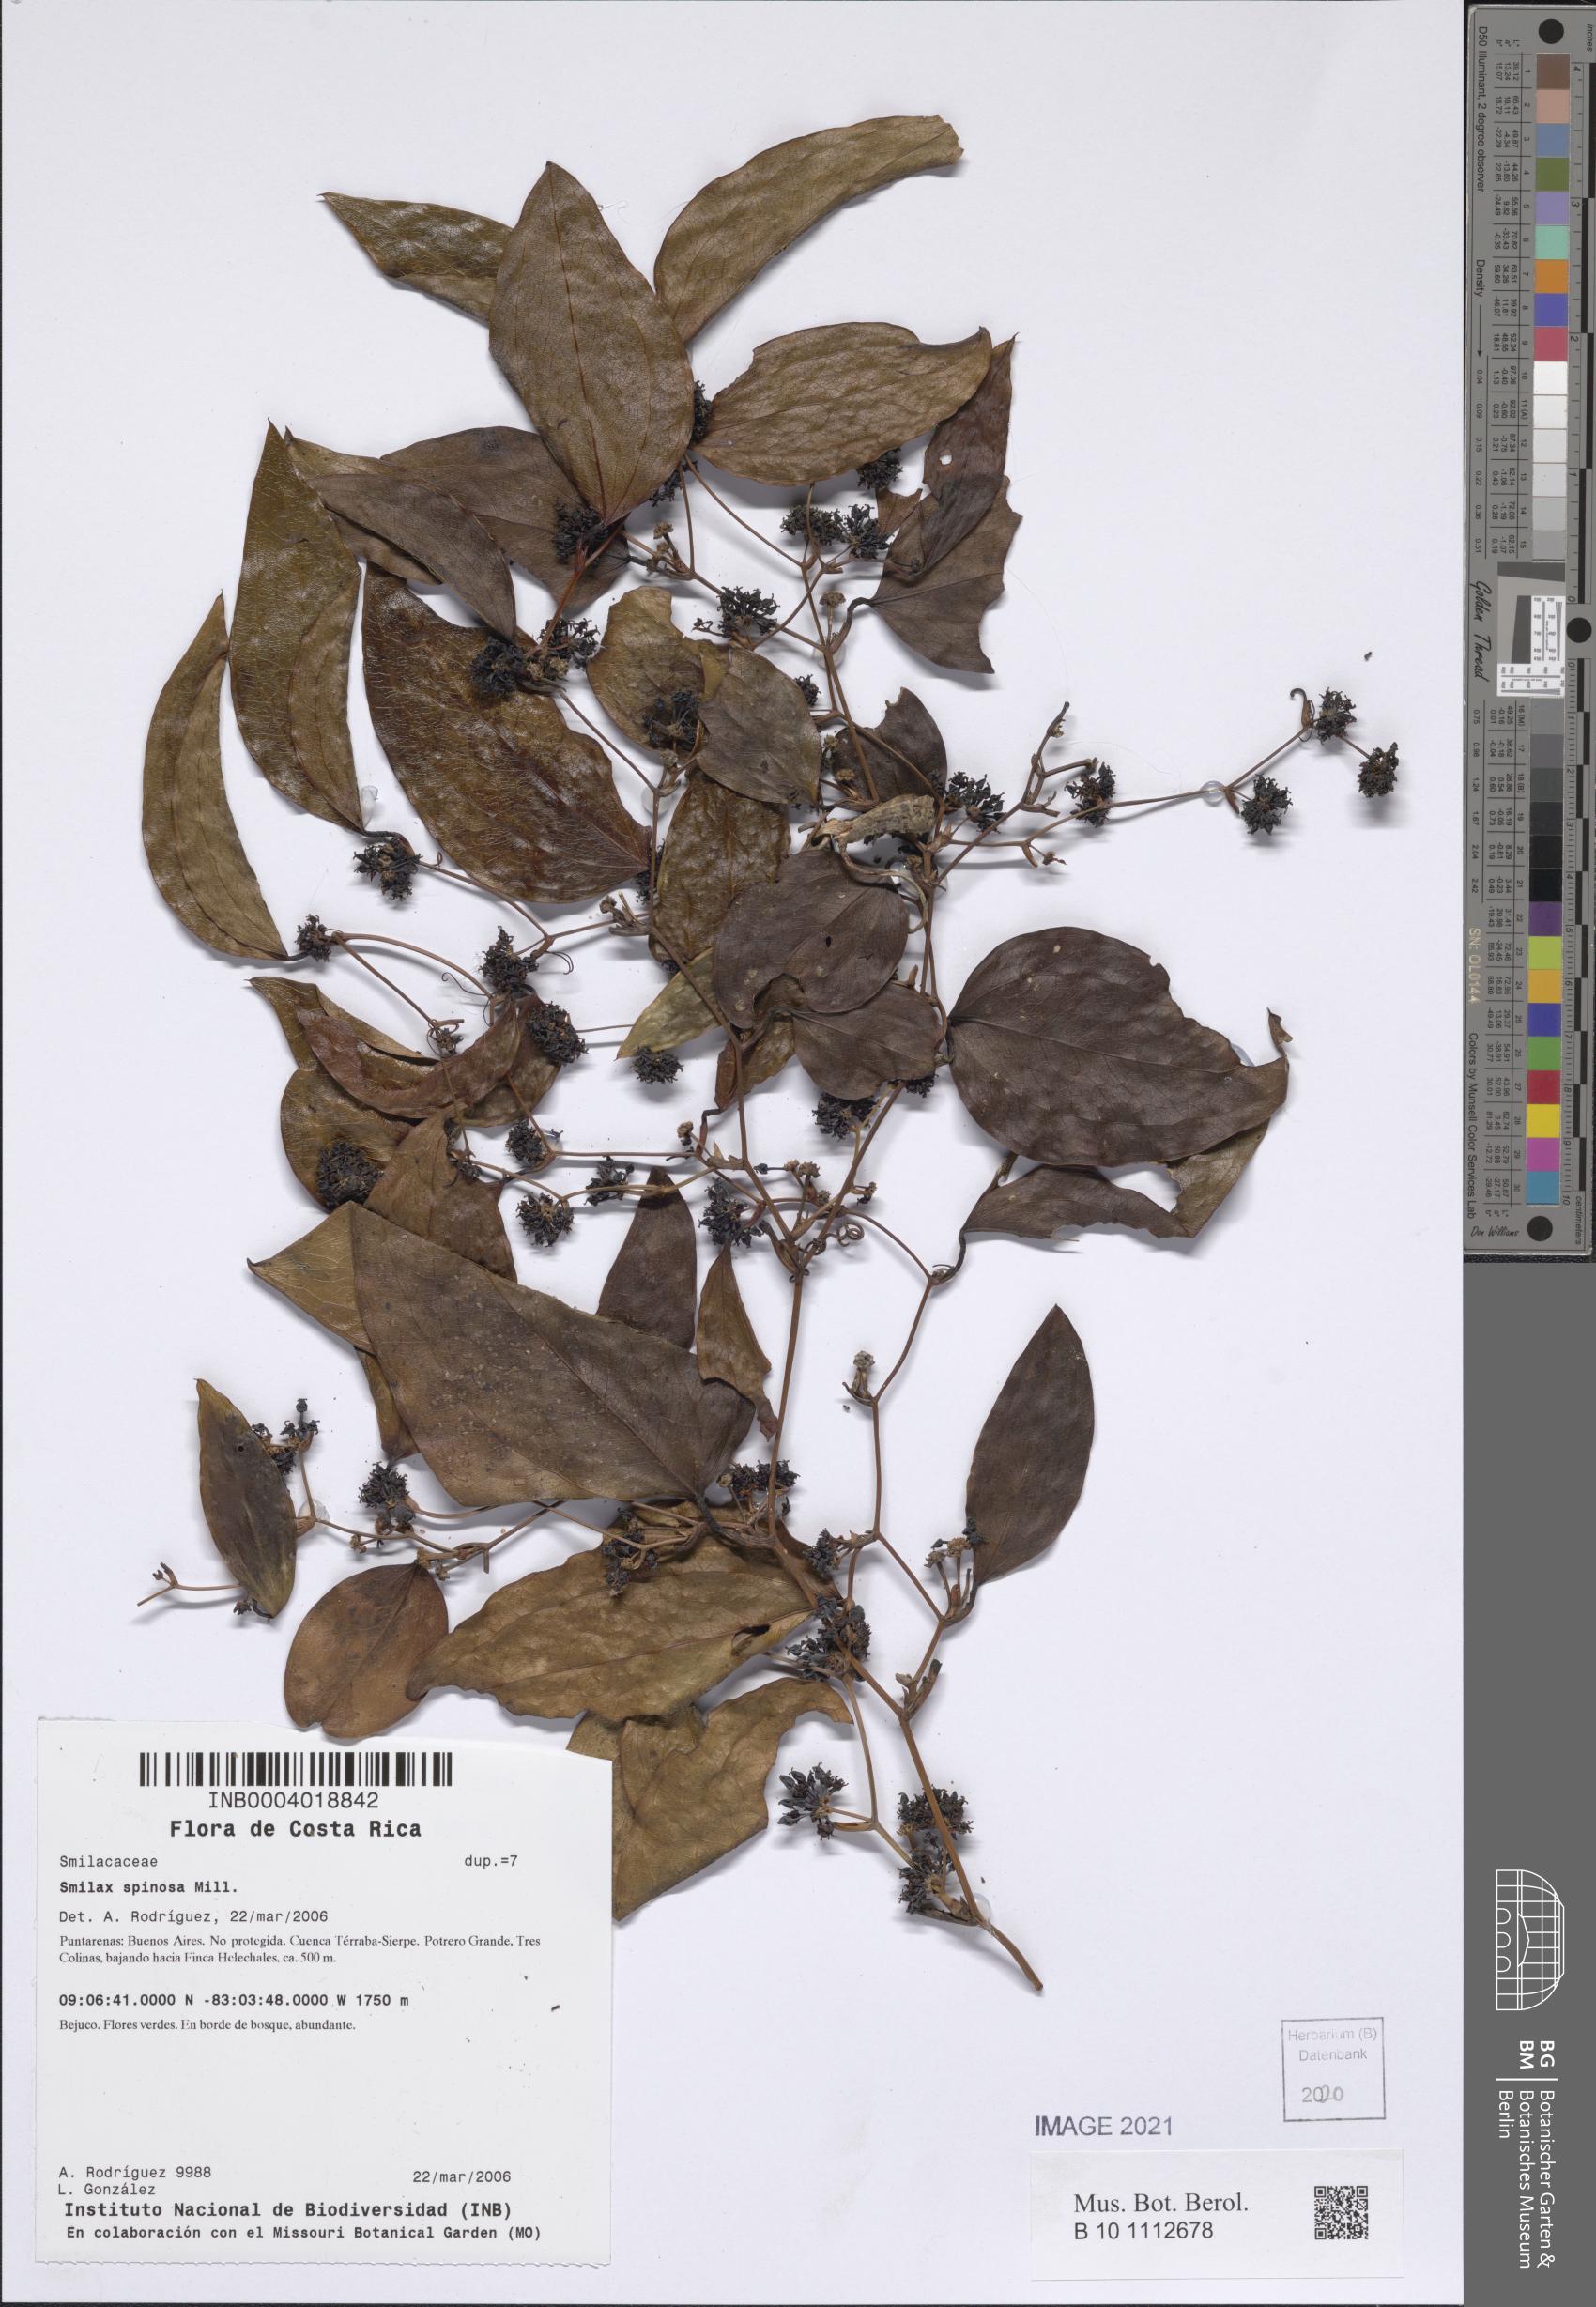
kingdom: Plantae
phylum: Tracheophyta
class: Liliopsida
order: Liliales
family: Smilacaceae
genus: Smilax
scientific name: Smilax spinosa
